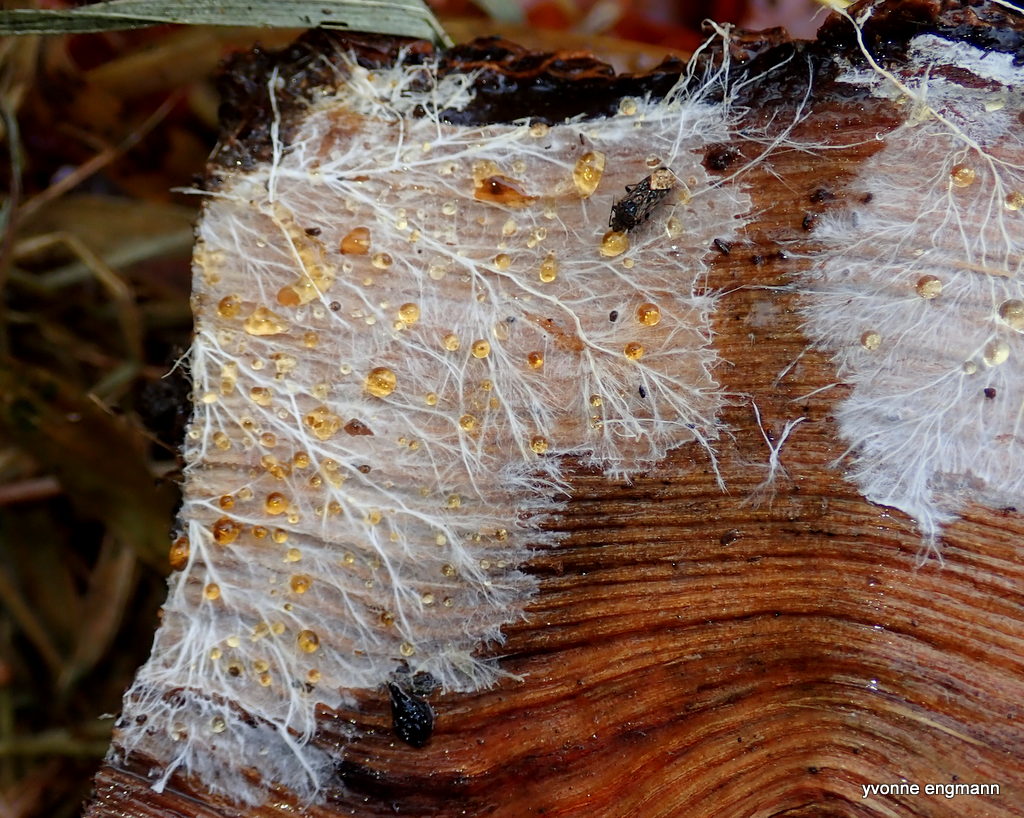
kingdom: Fungi
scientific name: Fungi
